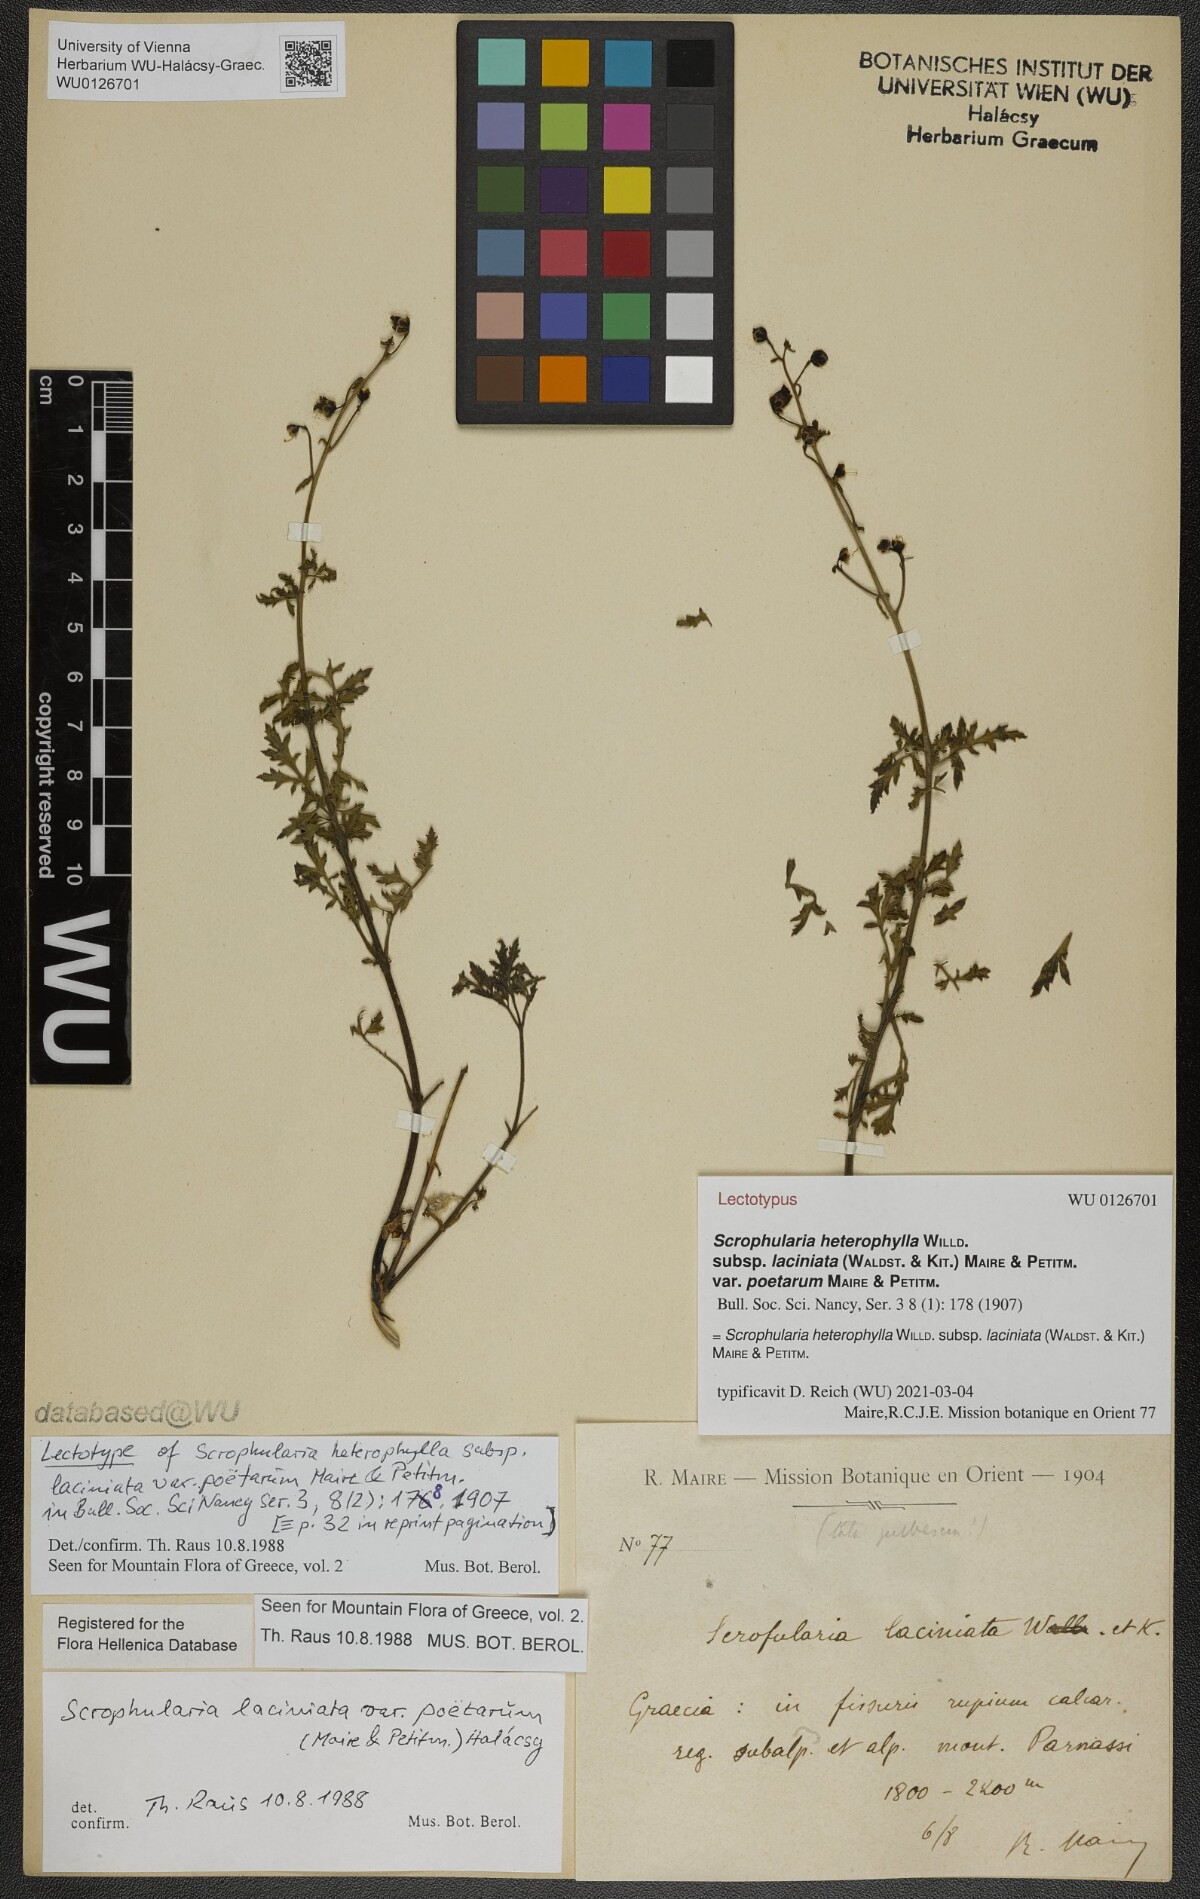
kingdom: Plantae
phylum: Tracheophyta
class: Magnoliopsida
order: Lamiales
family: Scrophulariaceae
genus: Scrophularia
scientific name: Scrophularia heterophylla
